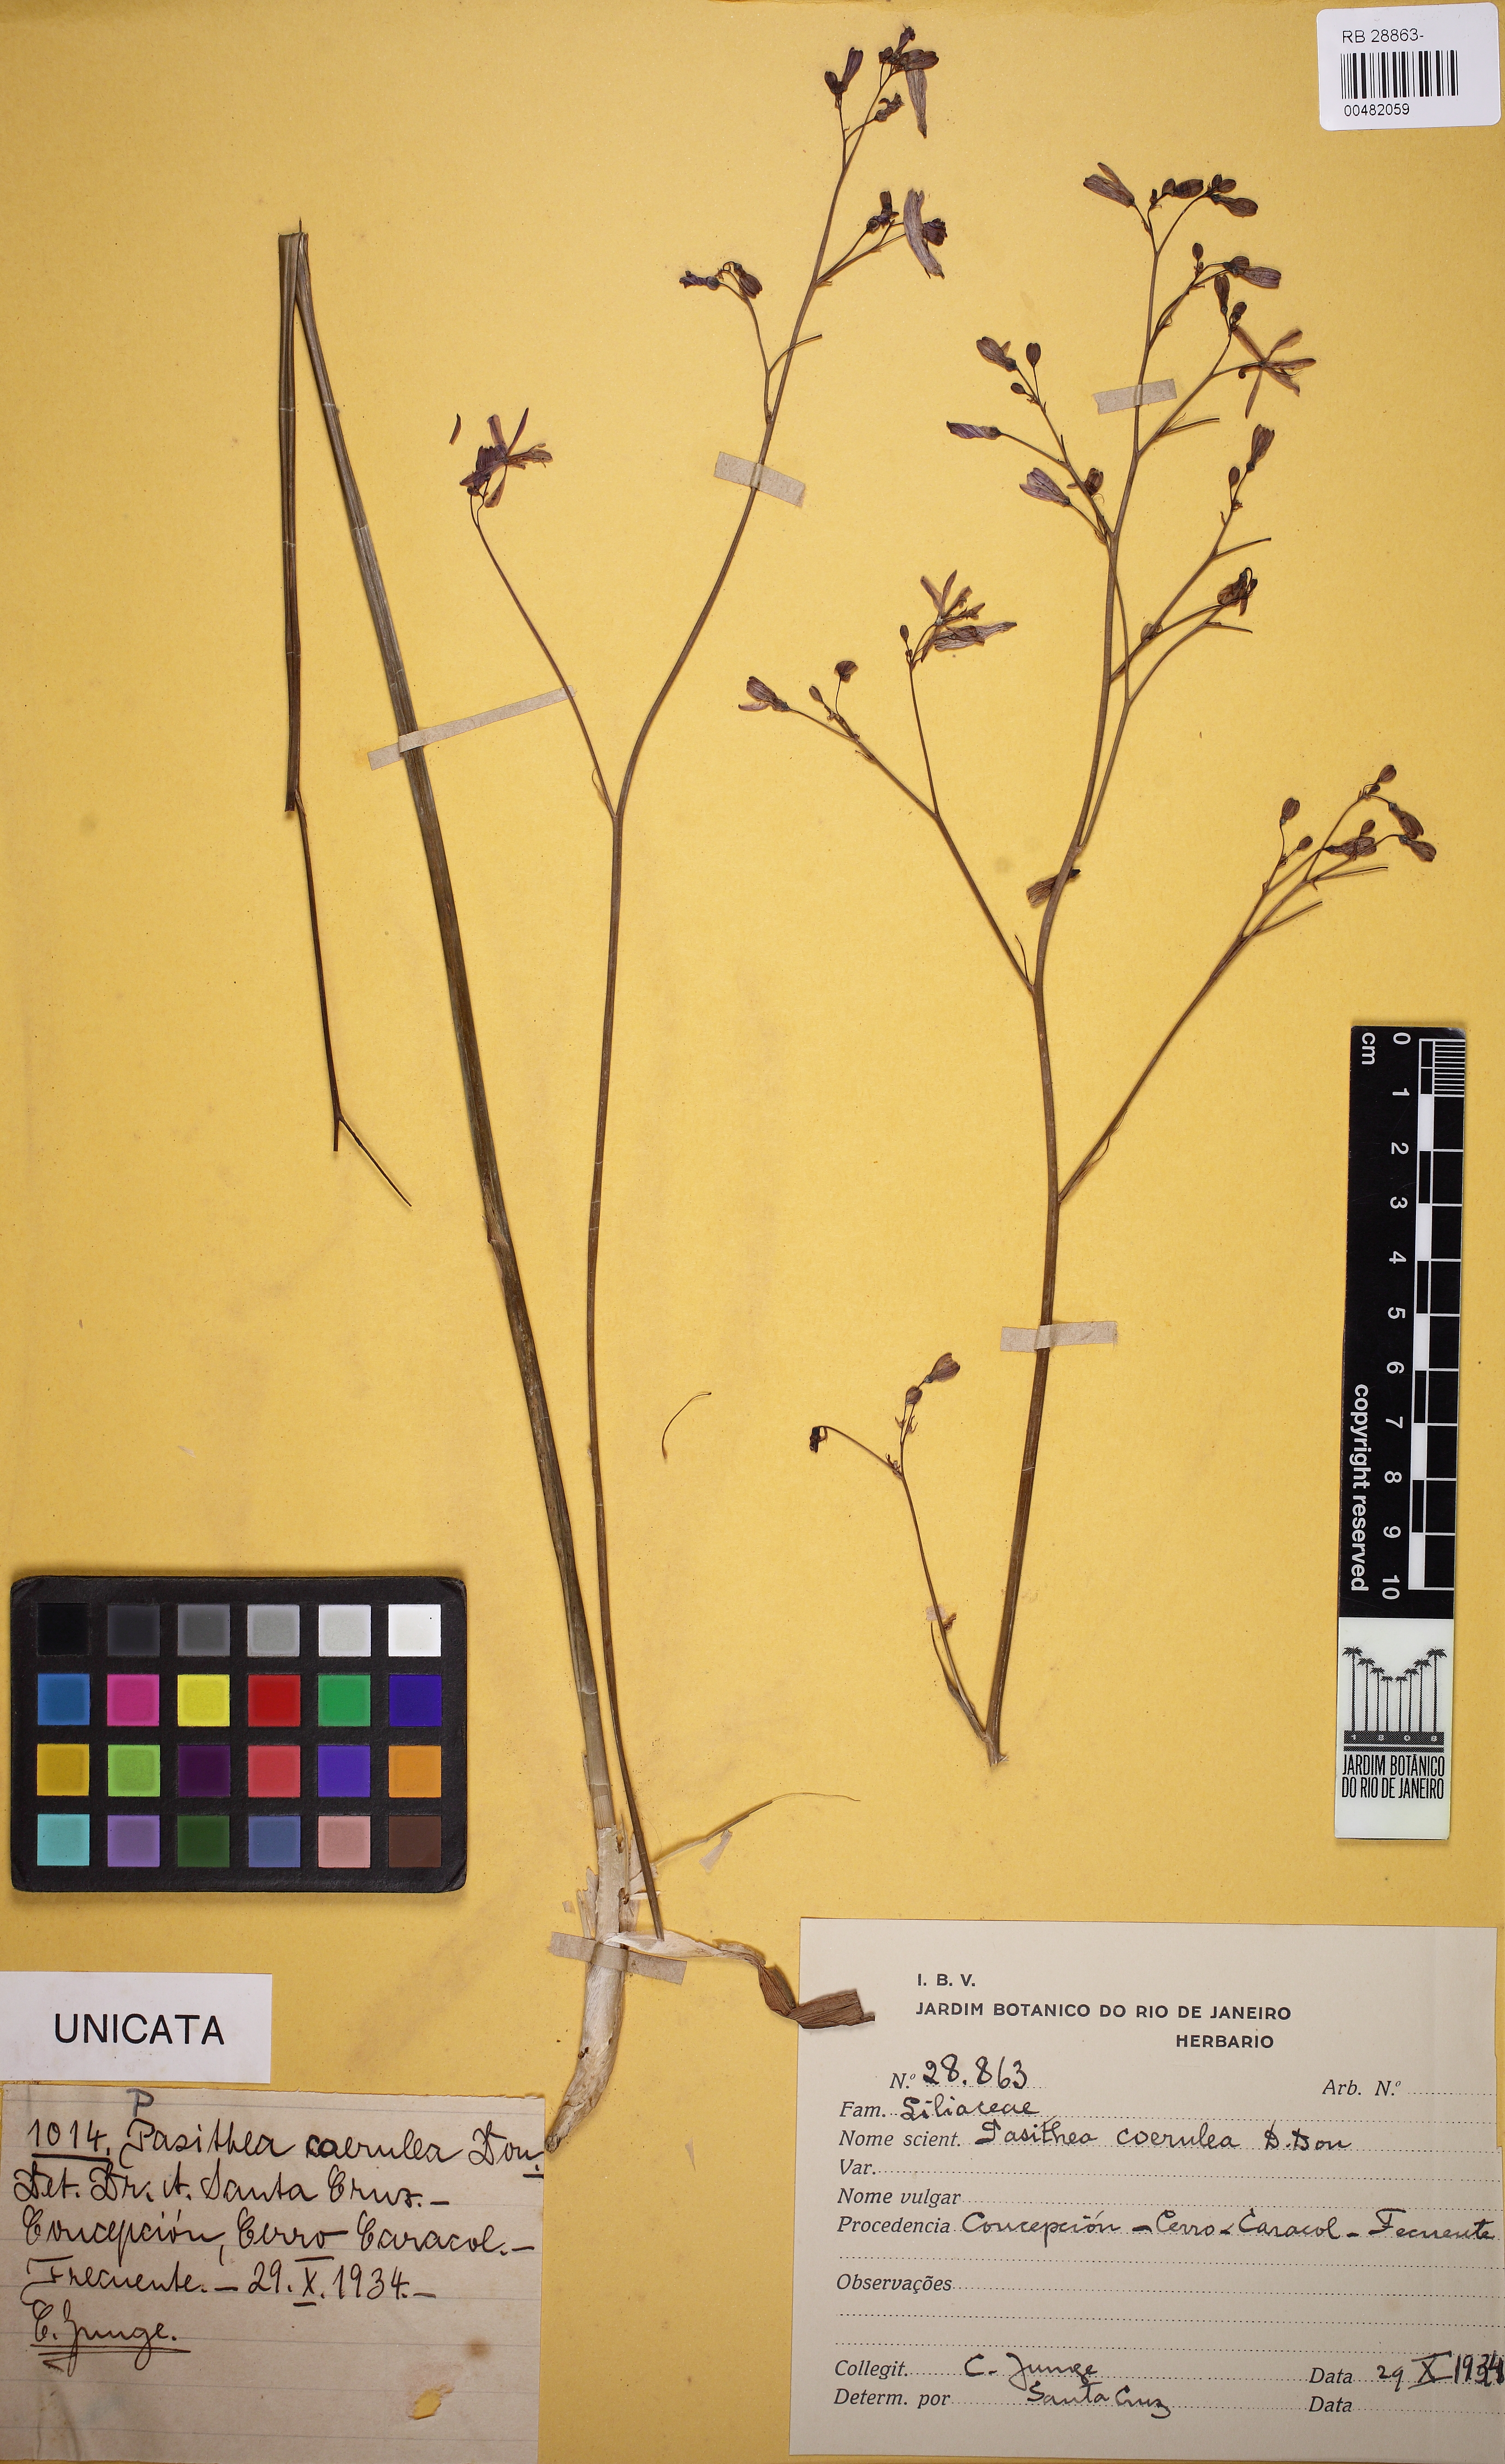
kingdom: Plantae
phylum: Tracheophyta
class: Liliopsida
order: Asparagales
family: Asphodelaceae
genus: Pasithea
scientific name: Pasithea caerulea
